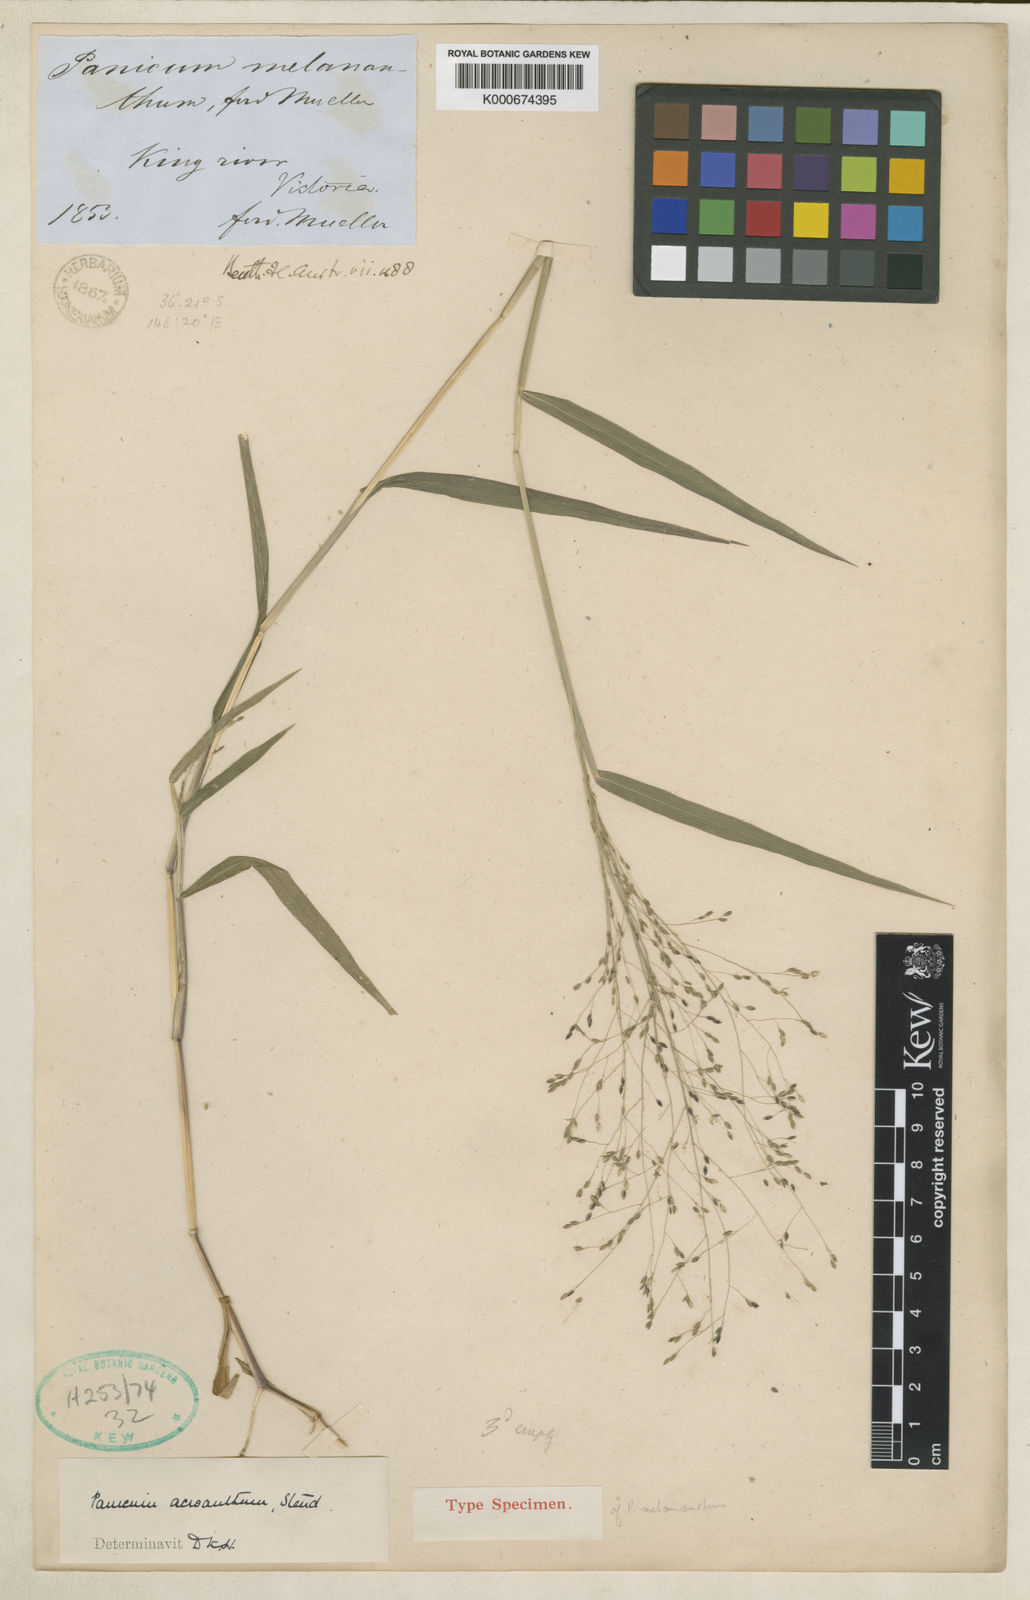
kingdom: Plantae
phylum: Tracheophyta
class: Liliopsida
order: Poales
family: Poaceae
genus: Panicum
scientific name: Panicum bisulcatum
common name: Japanese panicgrass
